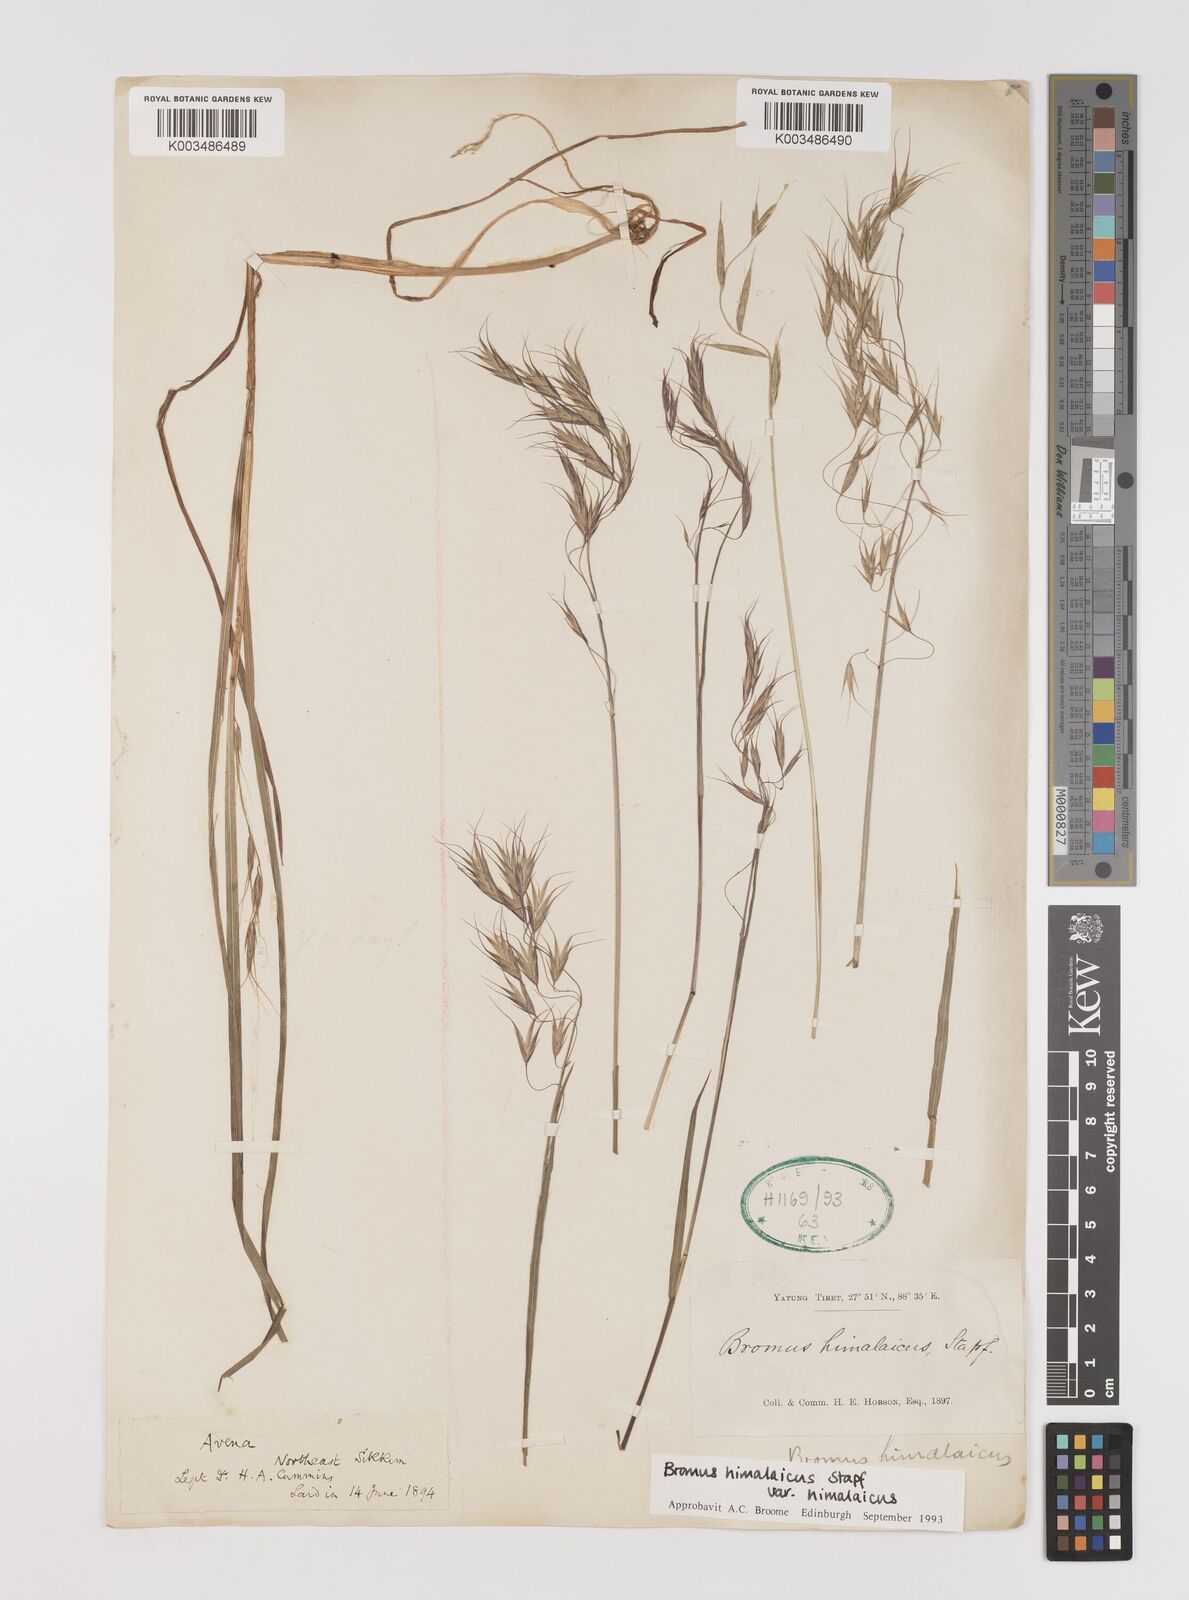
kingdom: Plantae
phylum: Tracheophyta
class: Liliopsida
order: Poales
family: Poaceae
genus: Bromus
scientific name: Bromus himalaicus
